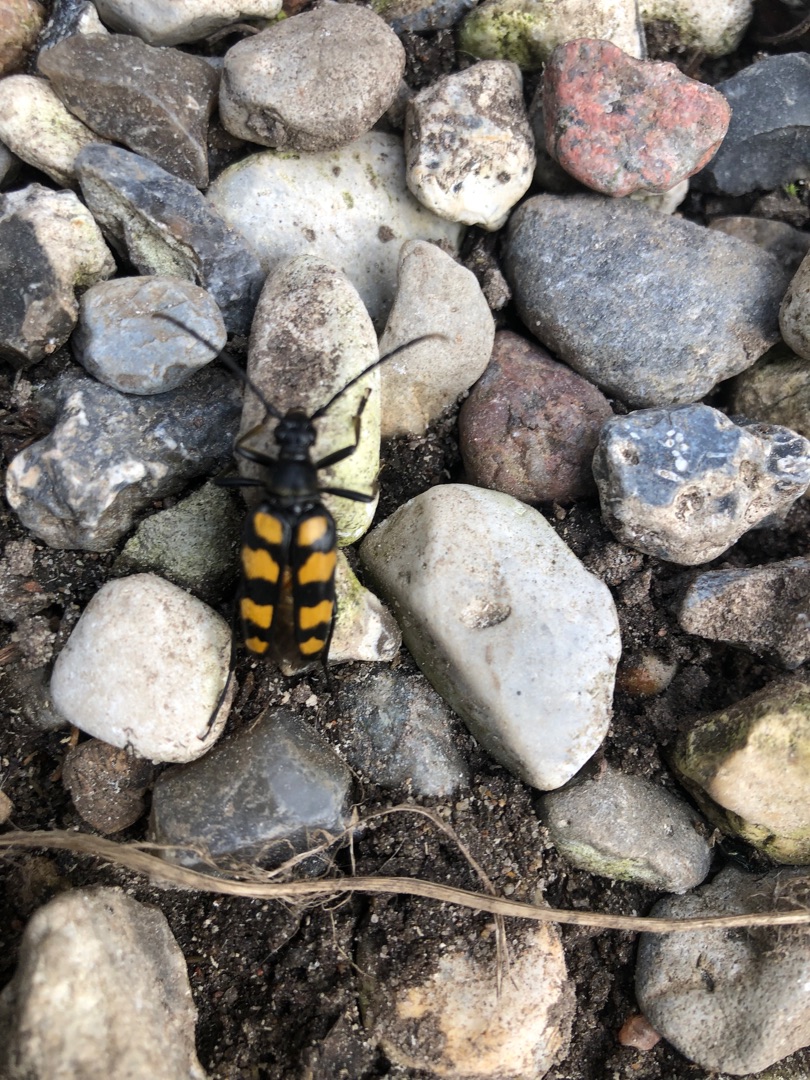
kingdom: Animalia
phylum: Arthropoda
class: Insecta
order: Coleoptera
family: Cerambycidae
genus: Leptura
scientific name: Leptura quadrifasciata
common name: Firebåndet blomsterbuk
